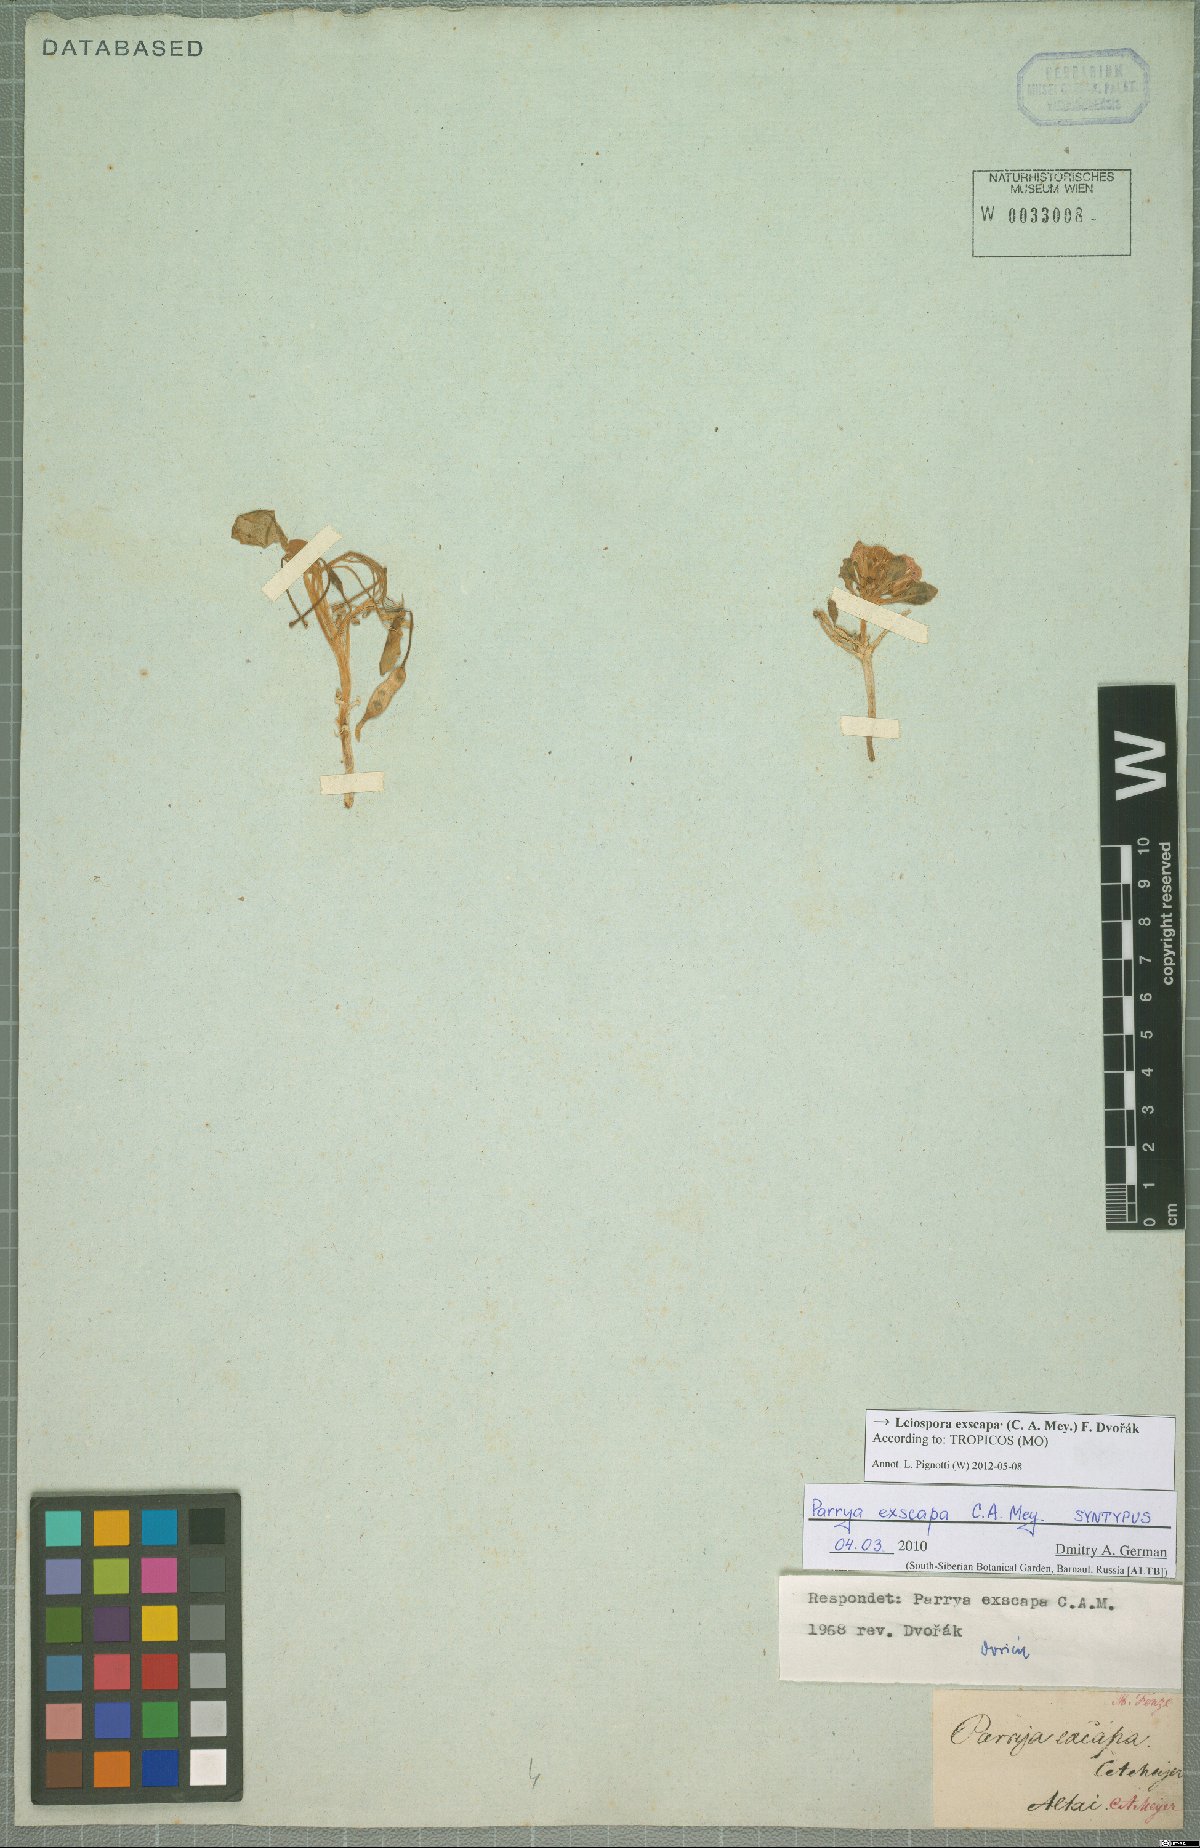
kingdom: Plantae
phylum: Tracheophyta
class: Magnoliopsida
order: Brassicales
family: Brassicaceae
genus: Leiospora
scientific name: Leiospora exscapa
